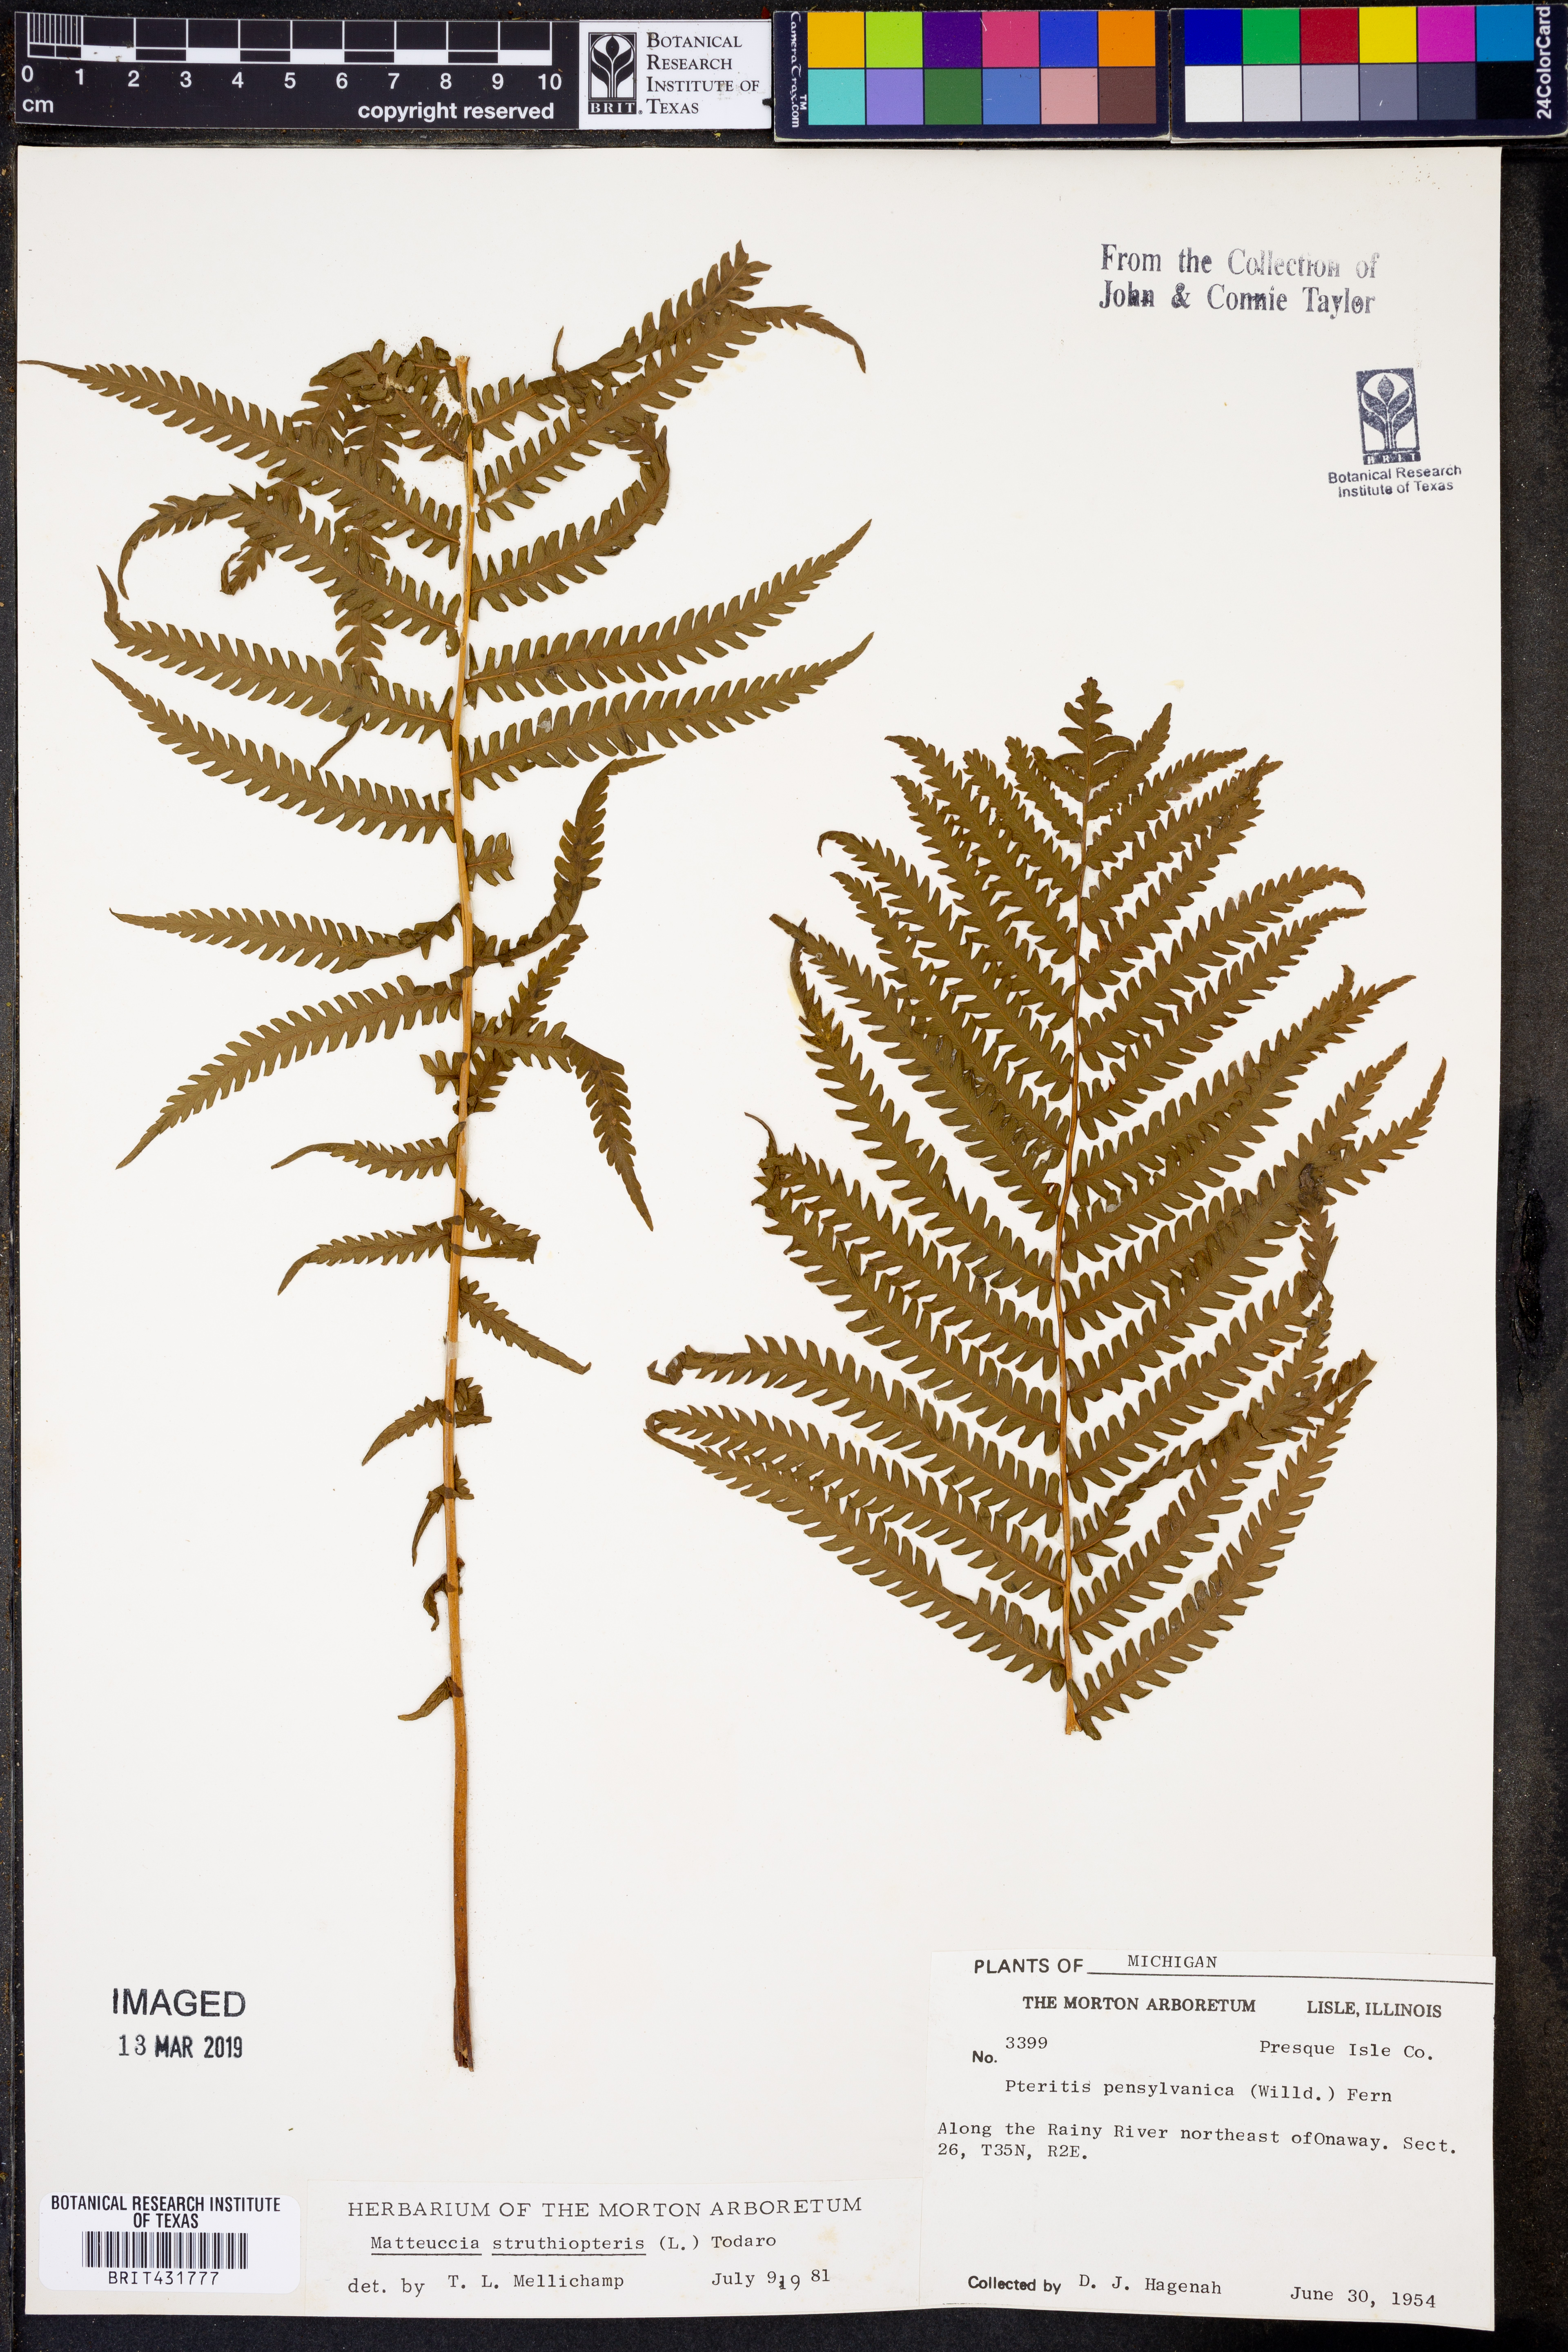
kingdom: Plantae
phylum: Tracheophyta
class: Polypodiopsida
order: Polypodiales
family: Onocleaceae
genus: Matteuccia
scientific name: Matteuccia struthiopteris
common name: Ostrich fern
